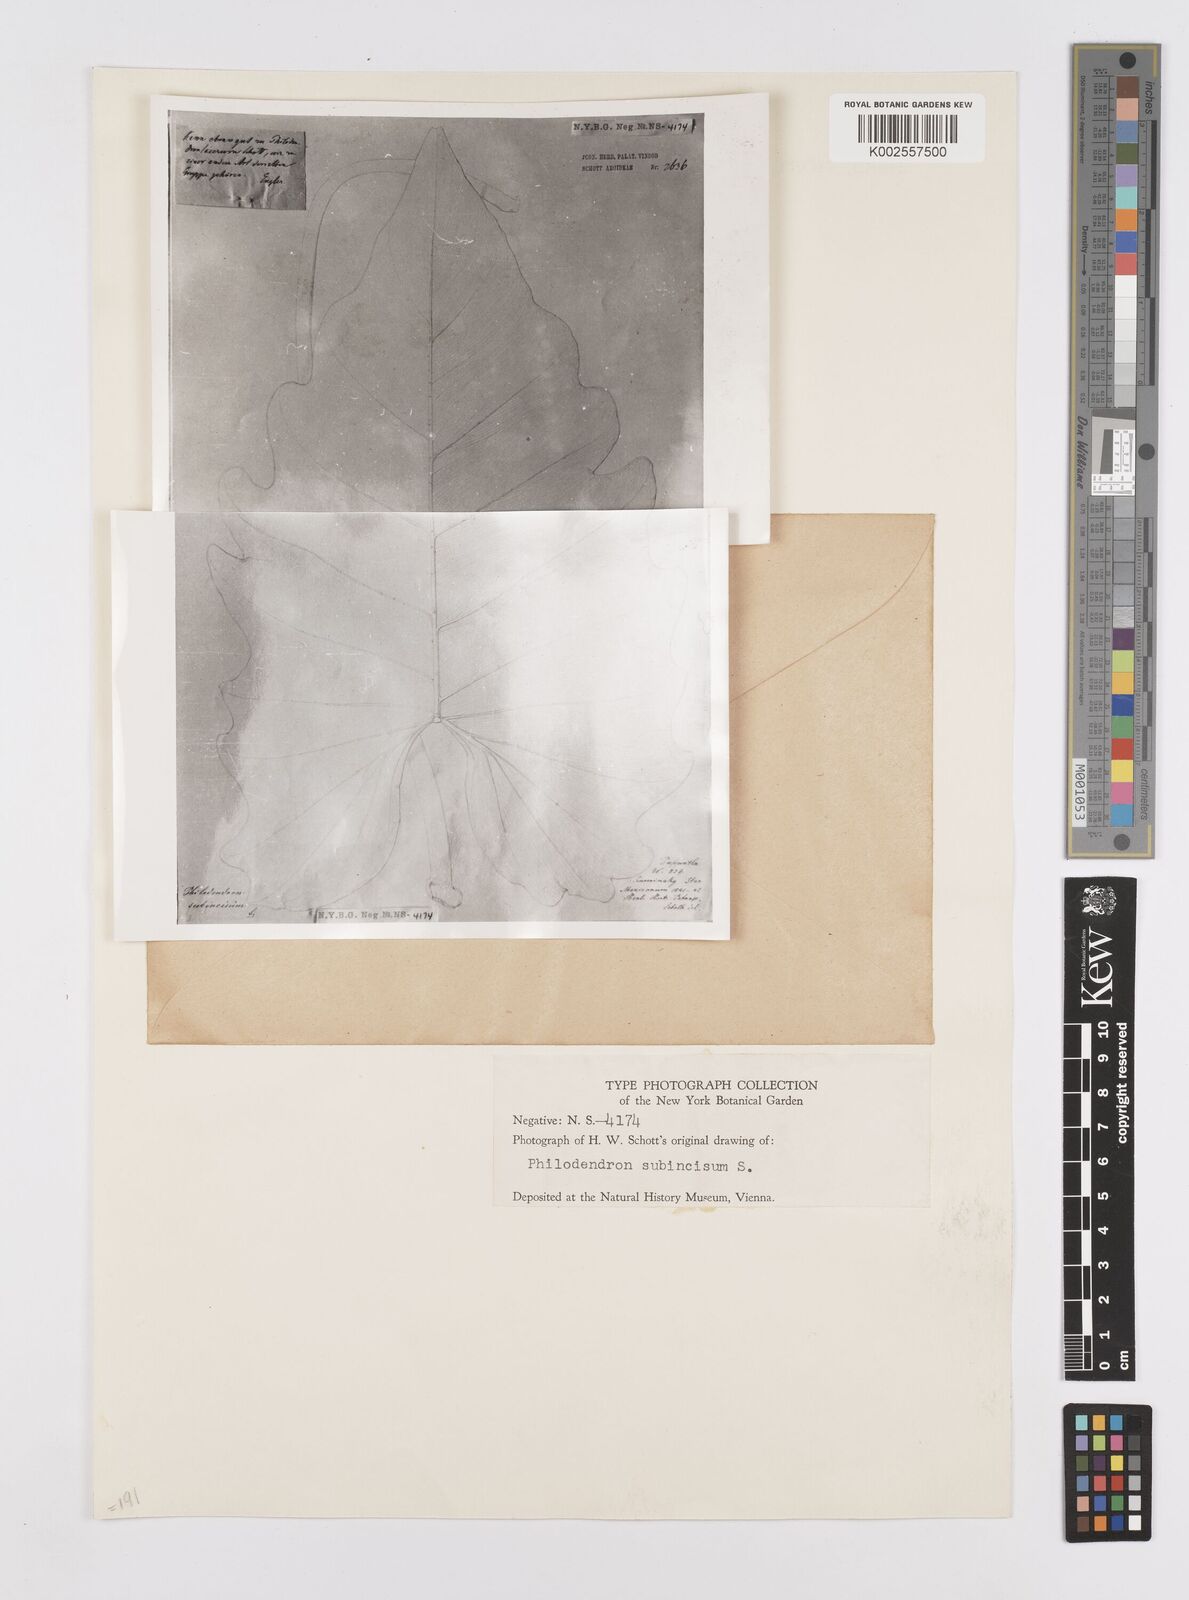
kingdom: Plantae
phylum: Tracheophyta
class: Liliopsida
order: Alismatales
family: Araceae
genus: Philodendron
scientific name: Philodendron lacerum
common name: Philodendron
